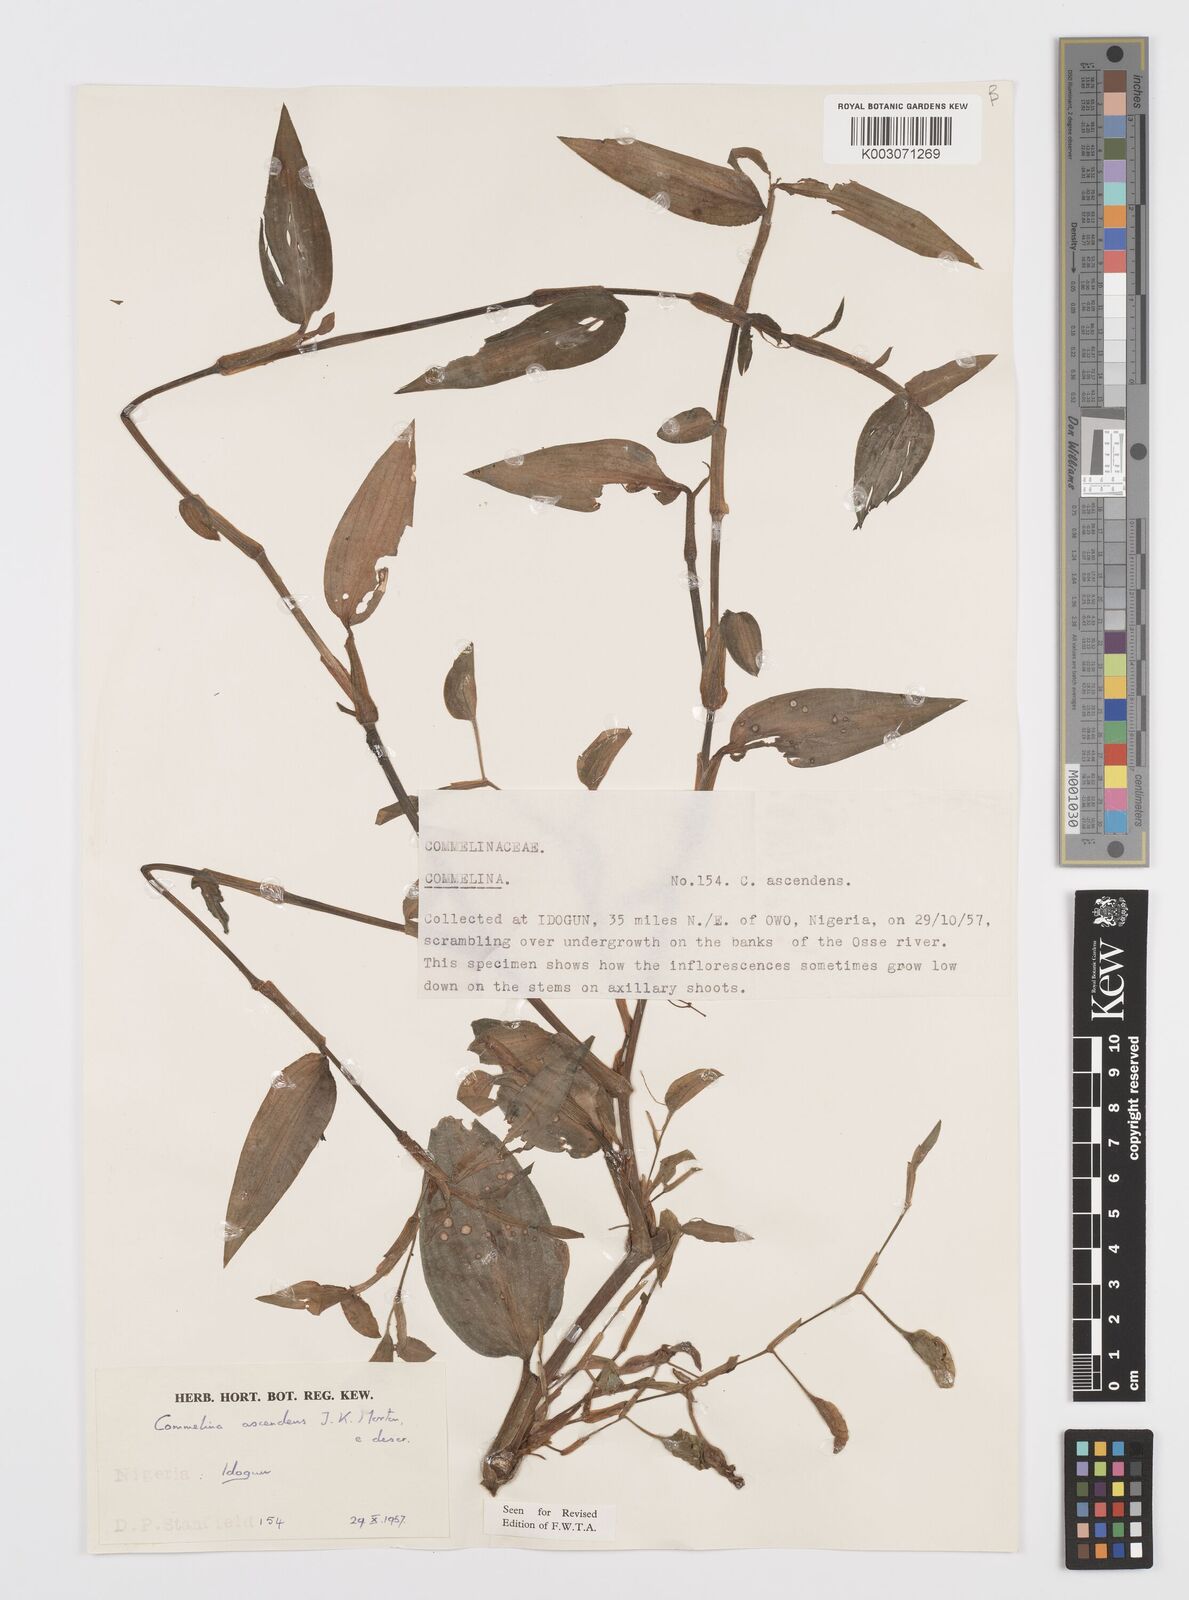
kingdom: Plantae
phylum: Tracheophyta
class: Liliopsida
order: Commelinales
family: Commelinaceae
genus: Commelina
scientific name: Commelina ascendens
